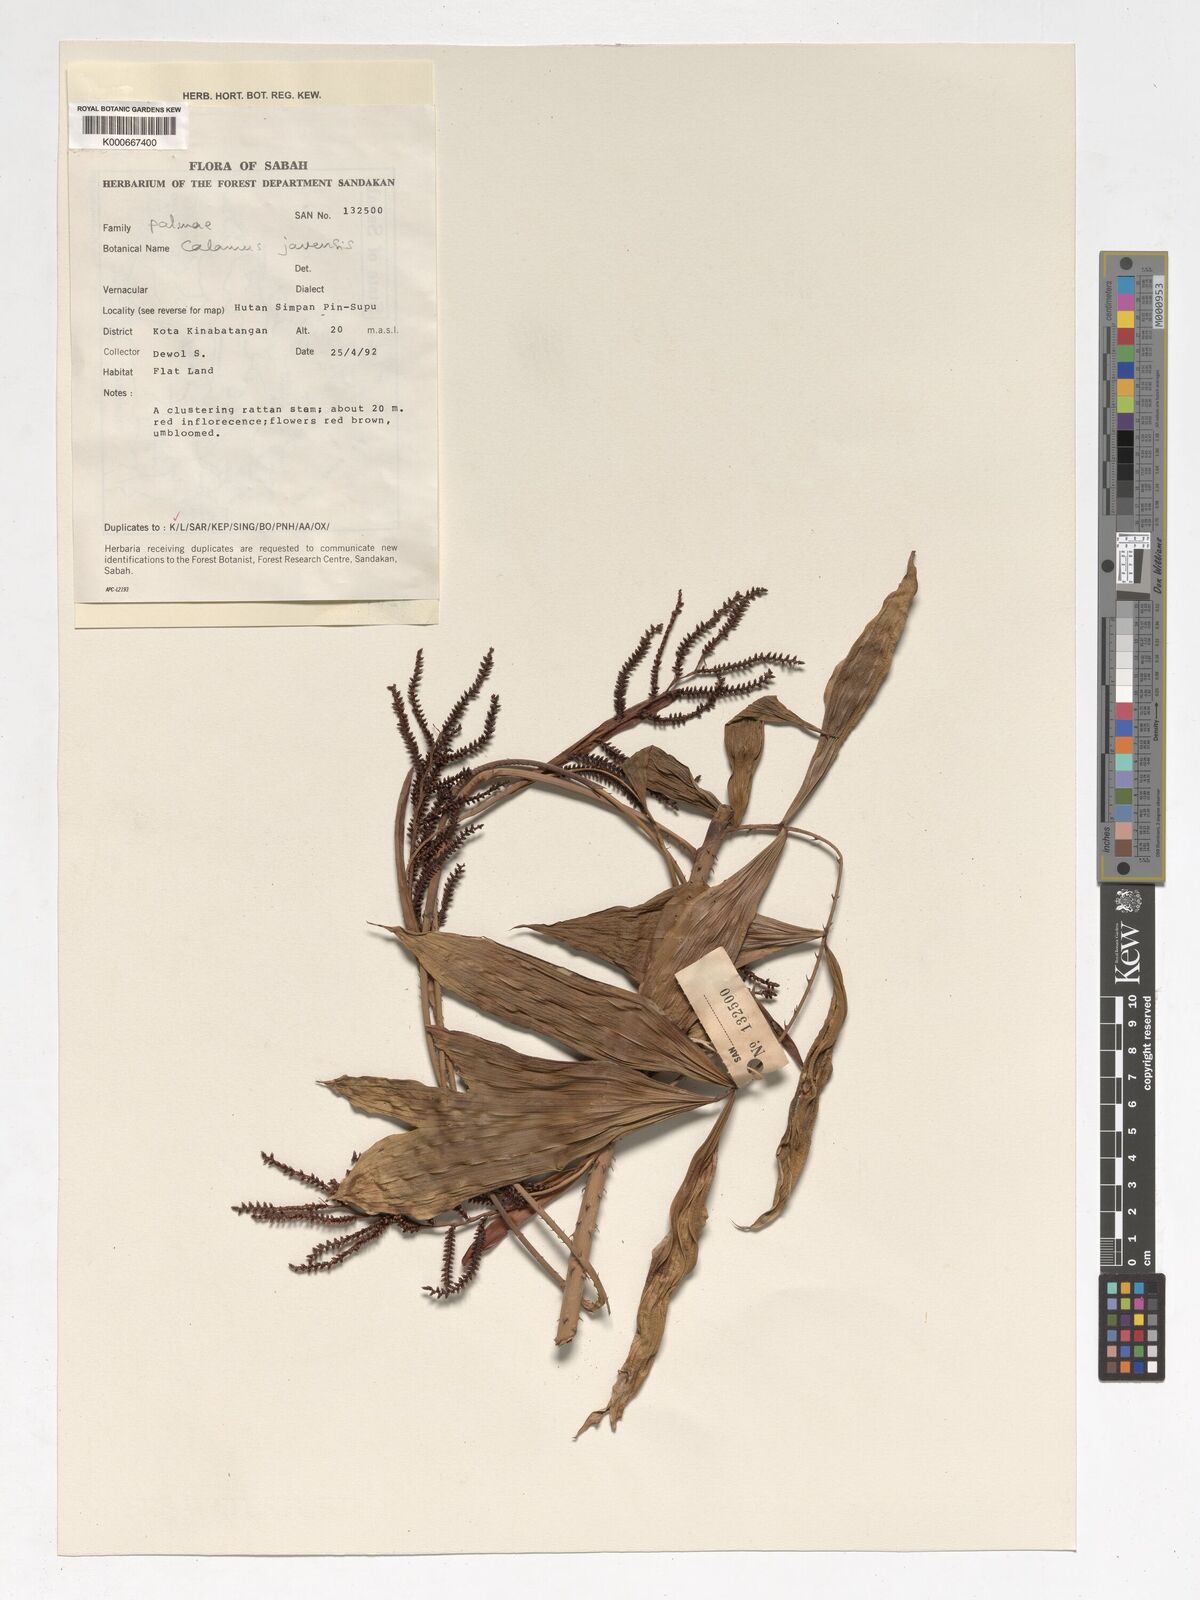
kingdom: Plantae
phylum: Tracheophyta
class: Liliopsida
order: Arecales
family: Arecaceae
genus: Calamus
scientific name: Calamus javensis
